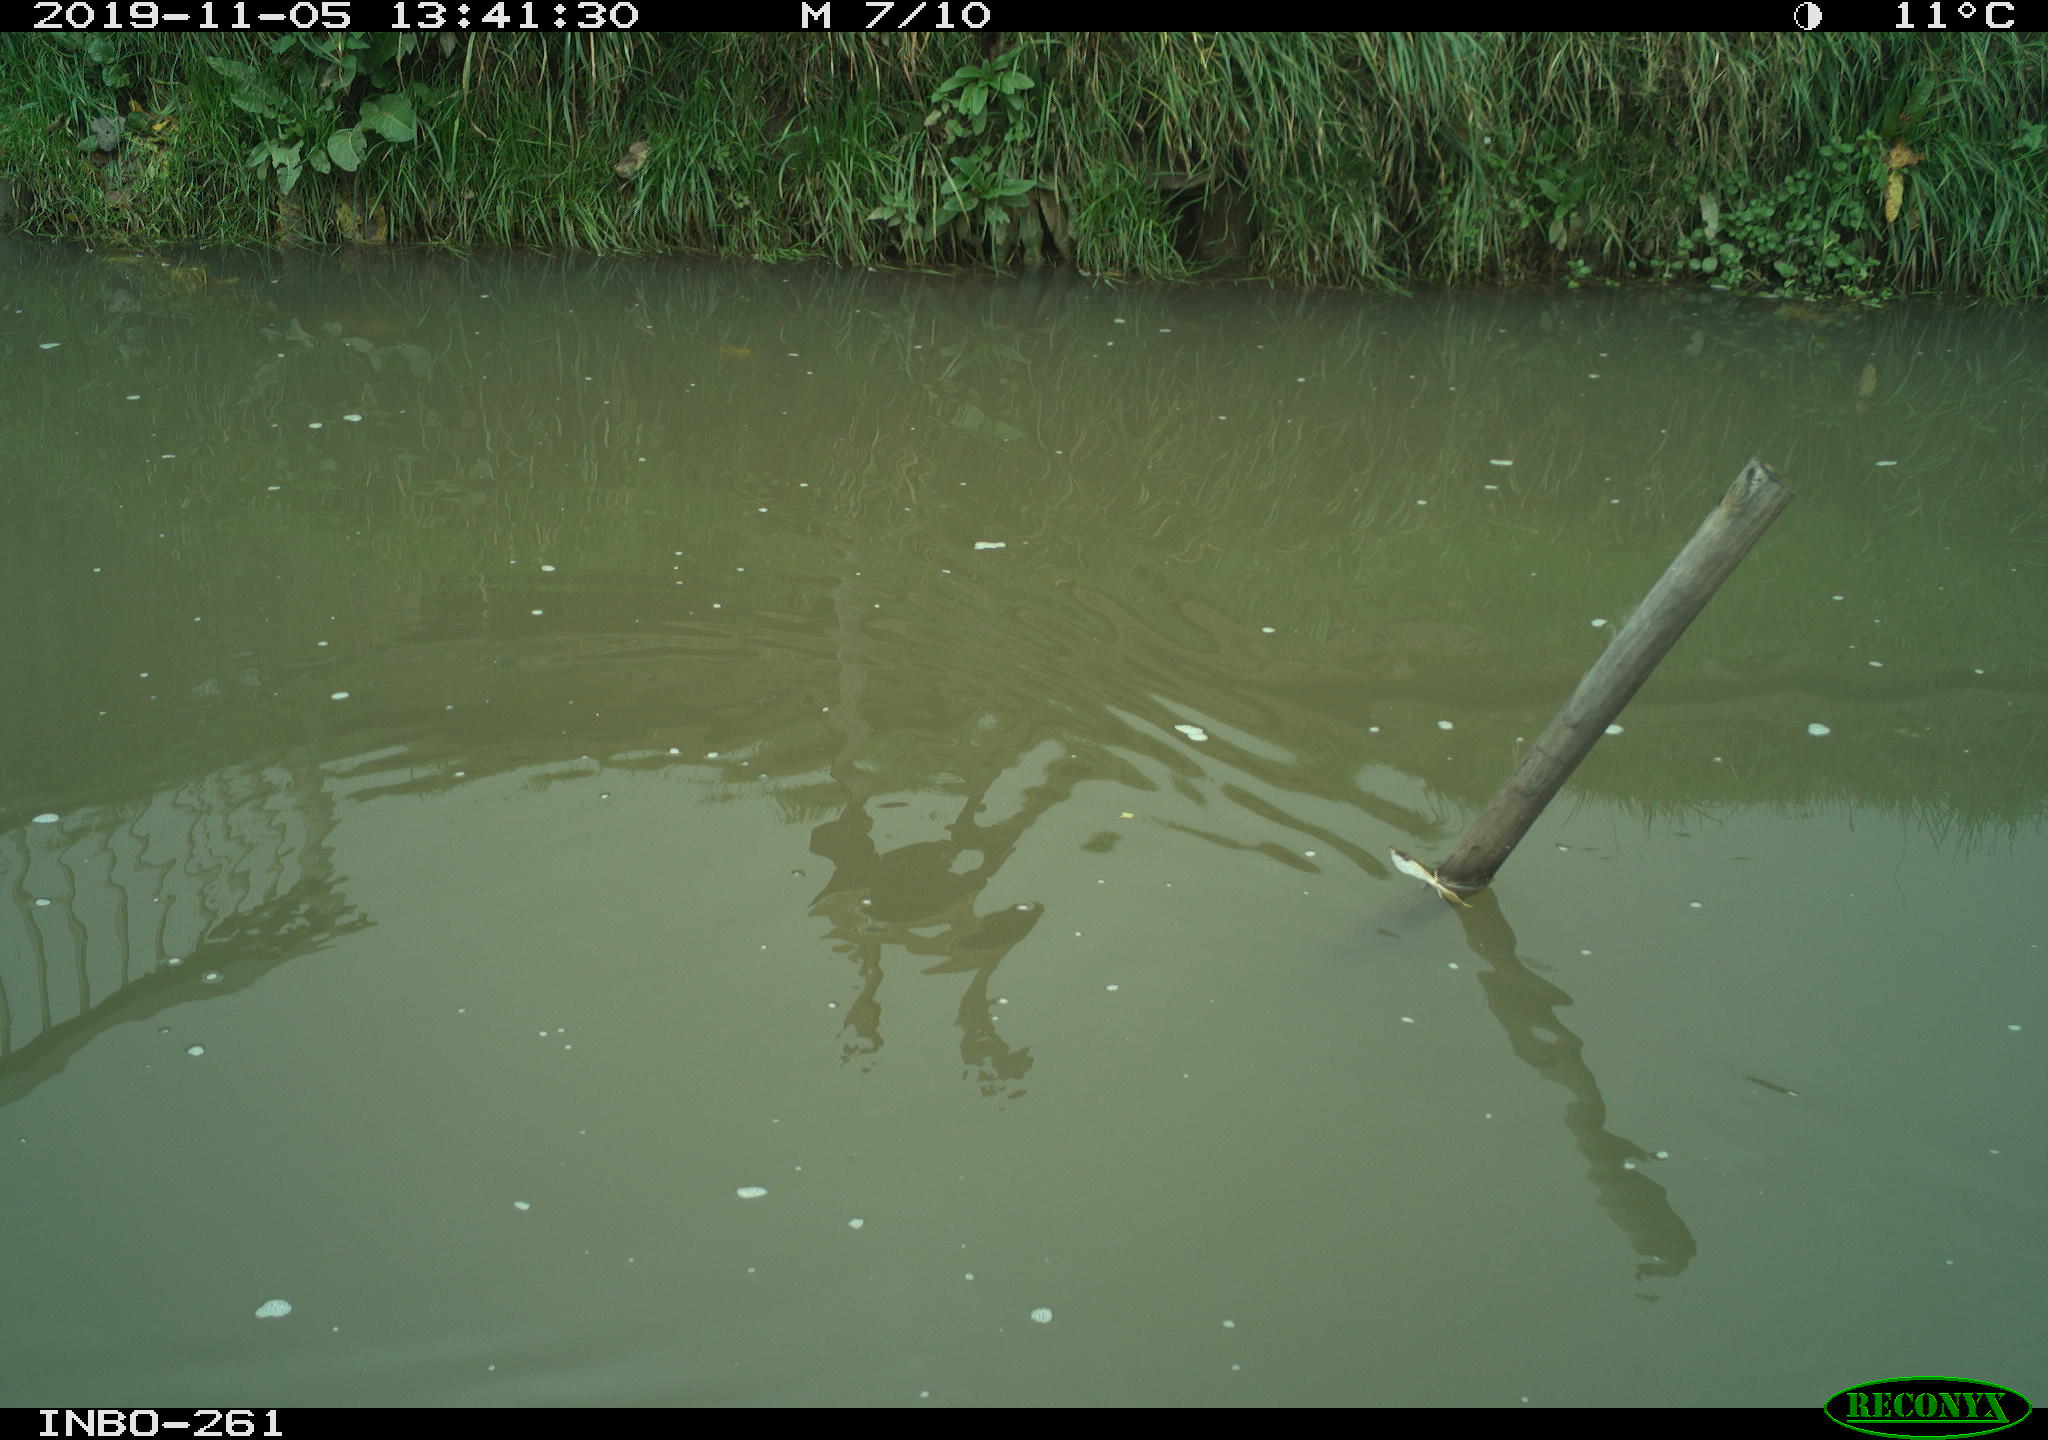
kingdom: Animalia
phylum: Chordata
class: Aves
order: Gruiformes
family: Rallidae
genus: Gallinula
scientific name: Gallinula chloropus
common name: Common moorhen
